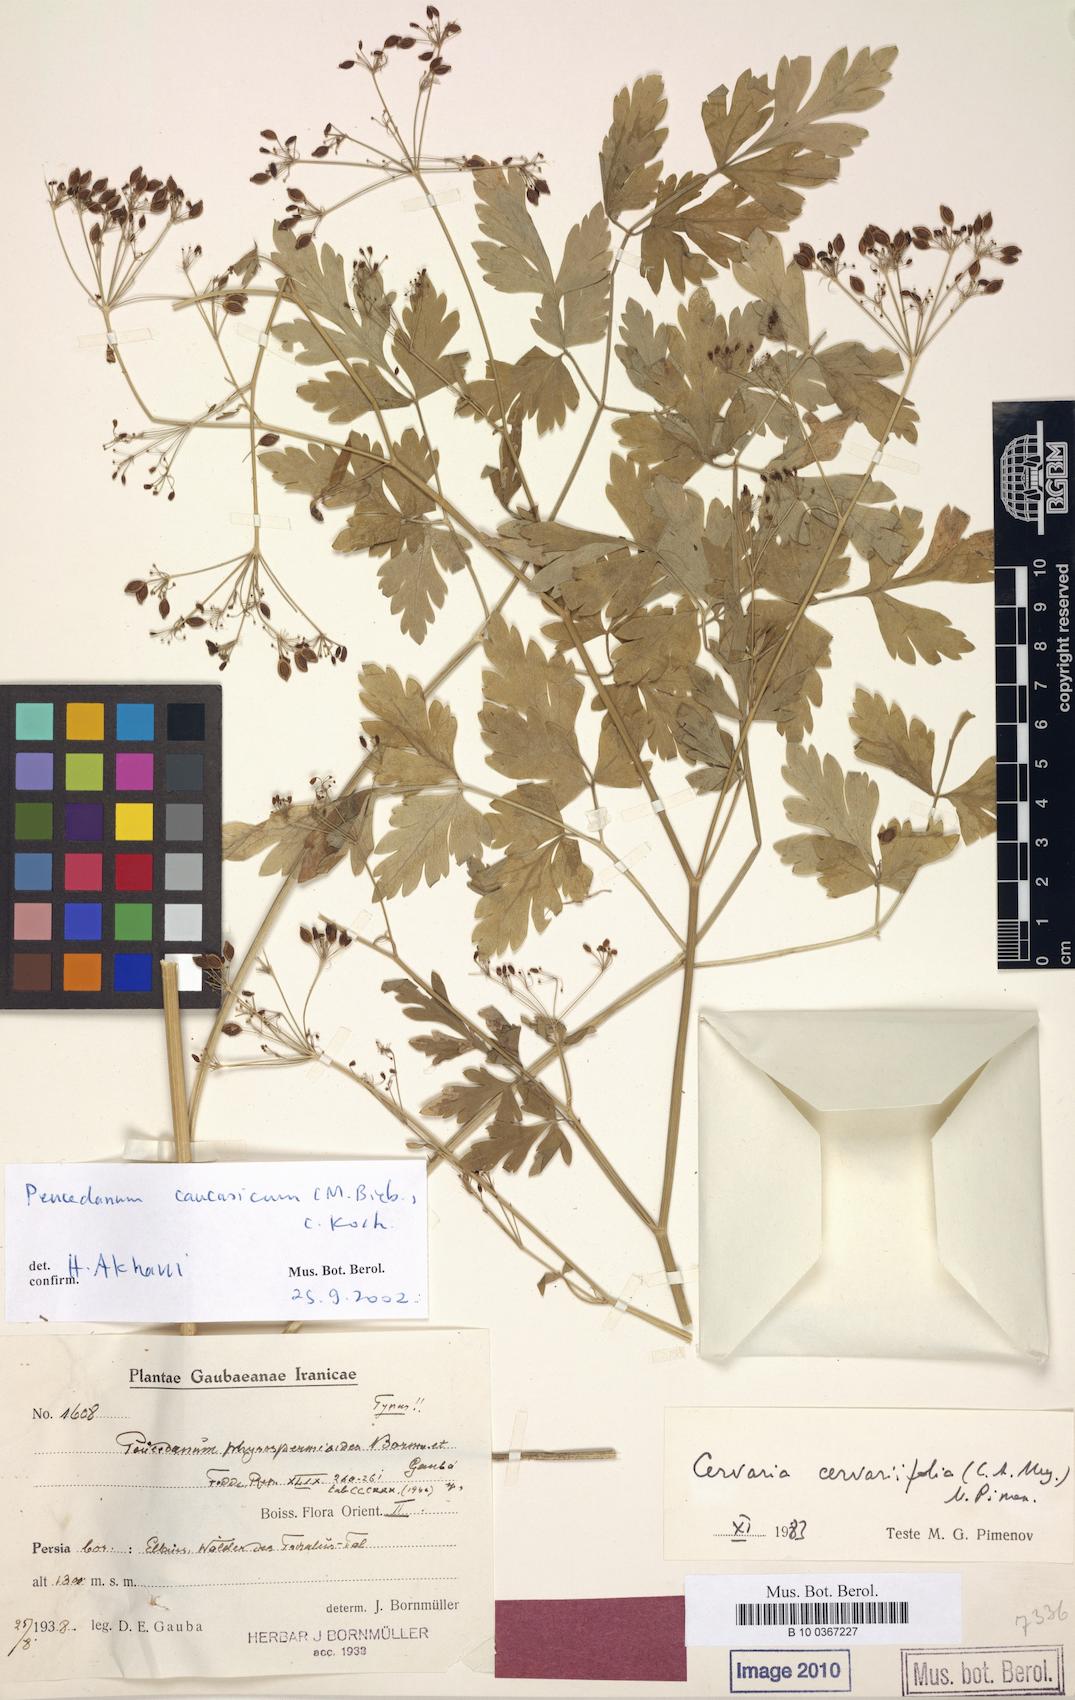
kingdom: Plantae
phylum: Tracheophyta
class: Magnoliopsida
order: Apiales
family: Apiaceae
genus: Dichoropetalum
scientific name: Dichoropetalum caucasicum
